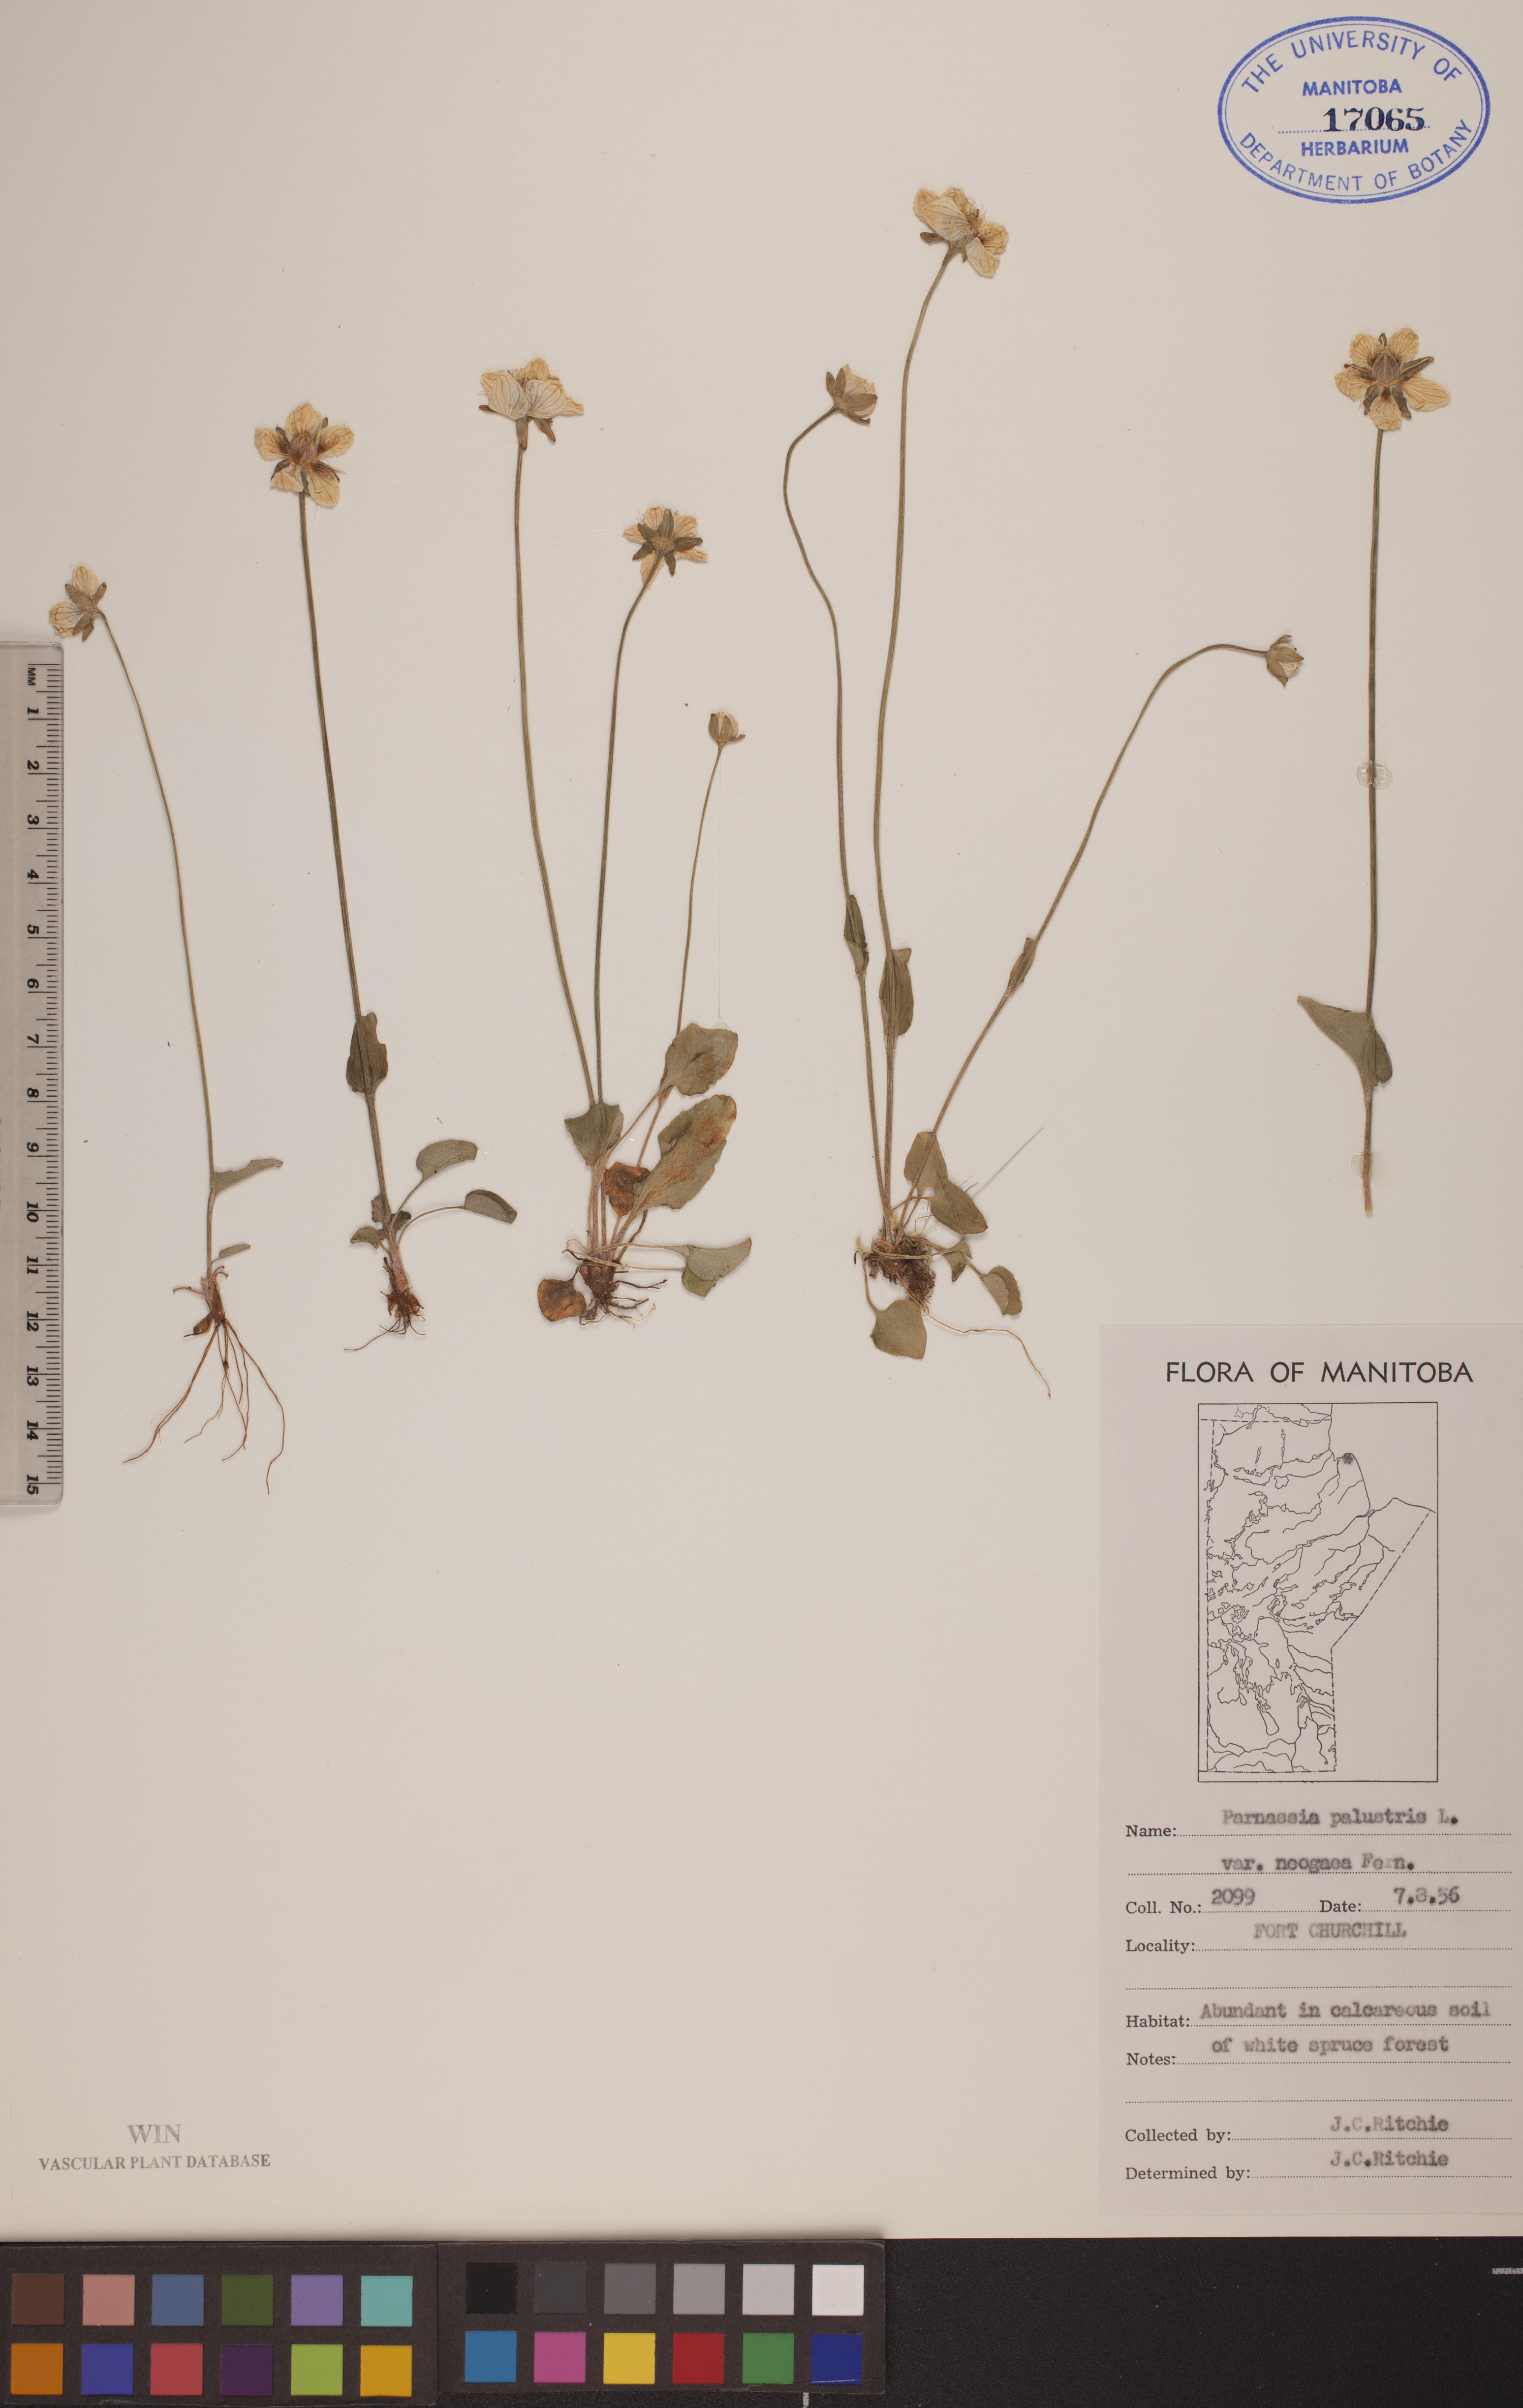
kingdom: Plantae
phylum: Tracheophyta
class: Magnoliopsida
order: Celastrales
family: Parnassiaceae
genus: Parnassia
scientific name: Parnassia palustris
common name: Grass-of-parnassus
